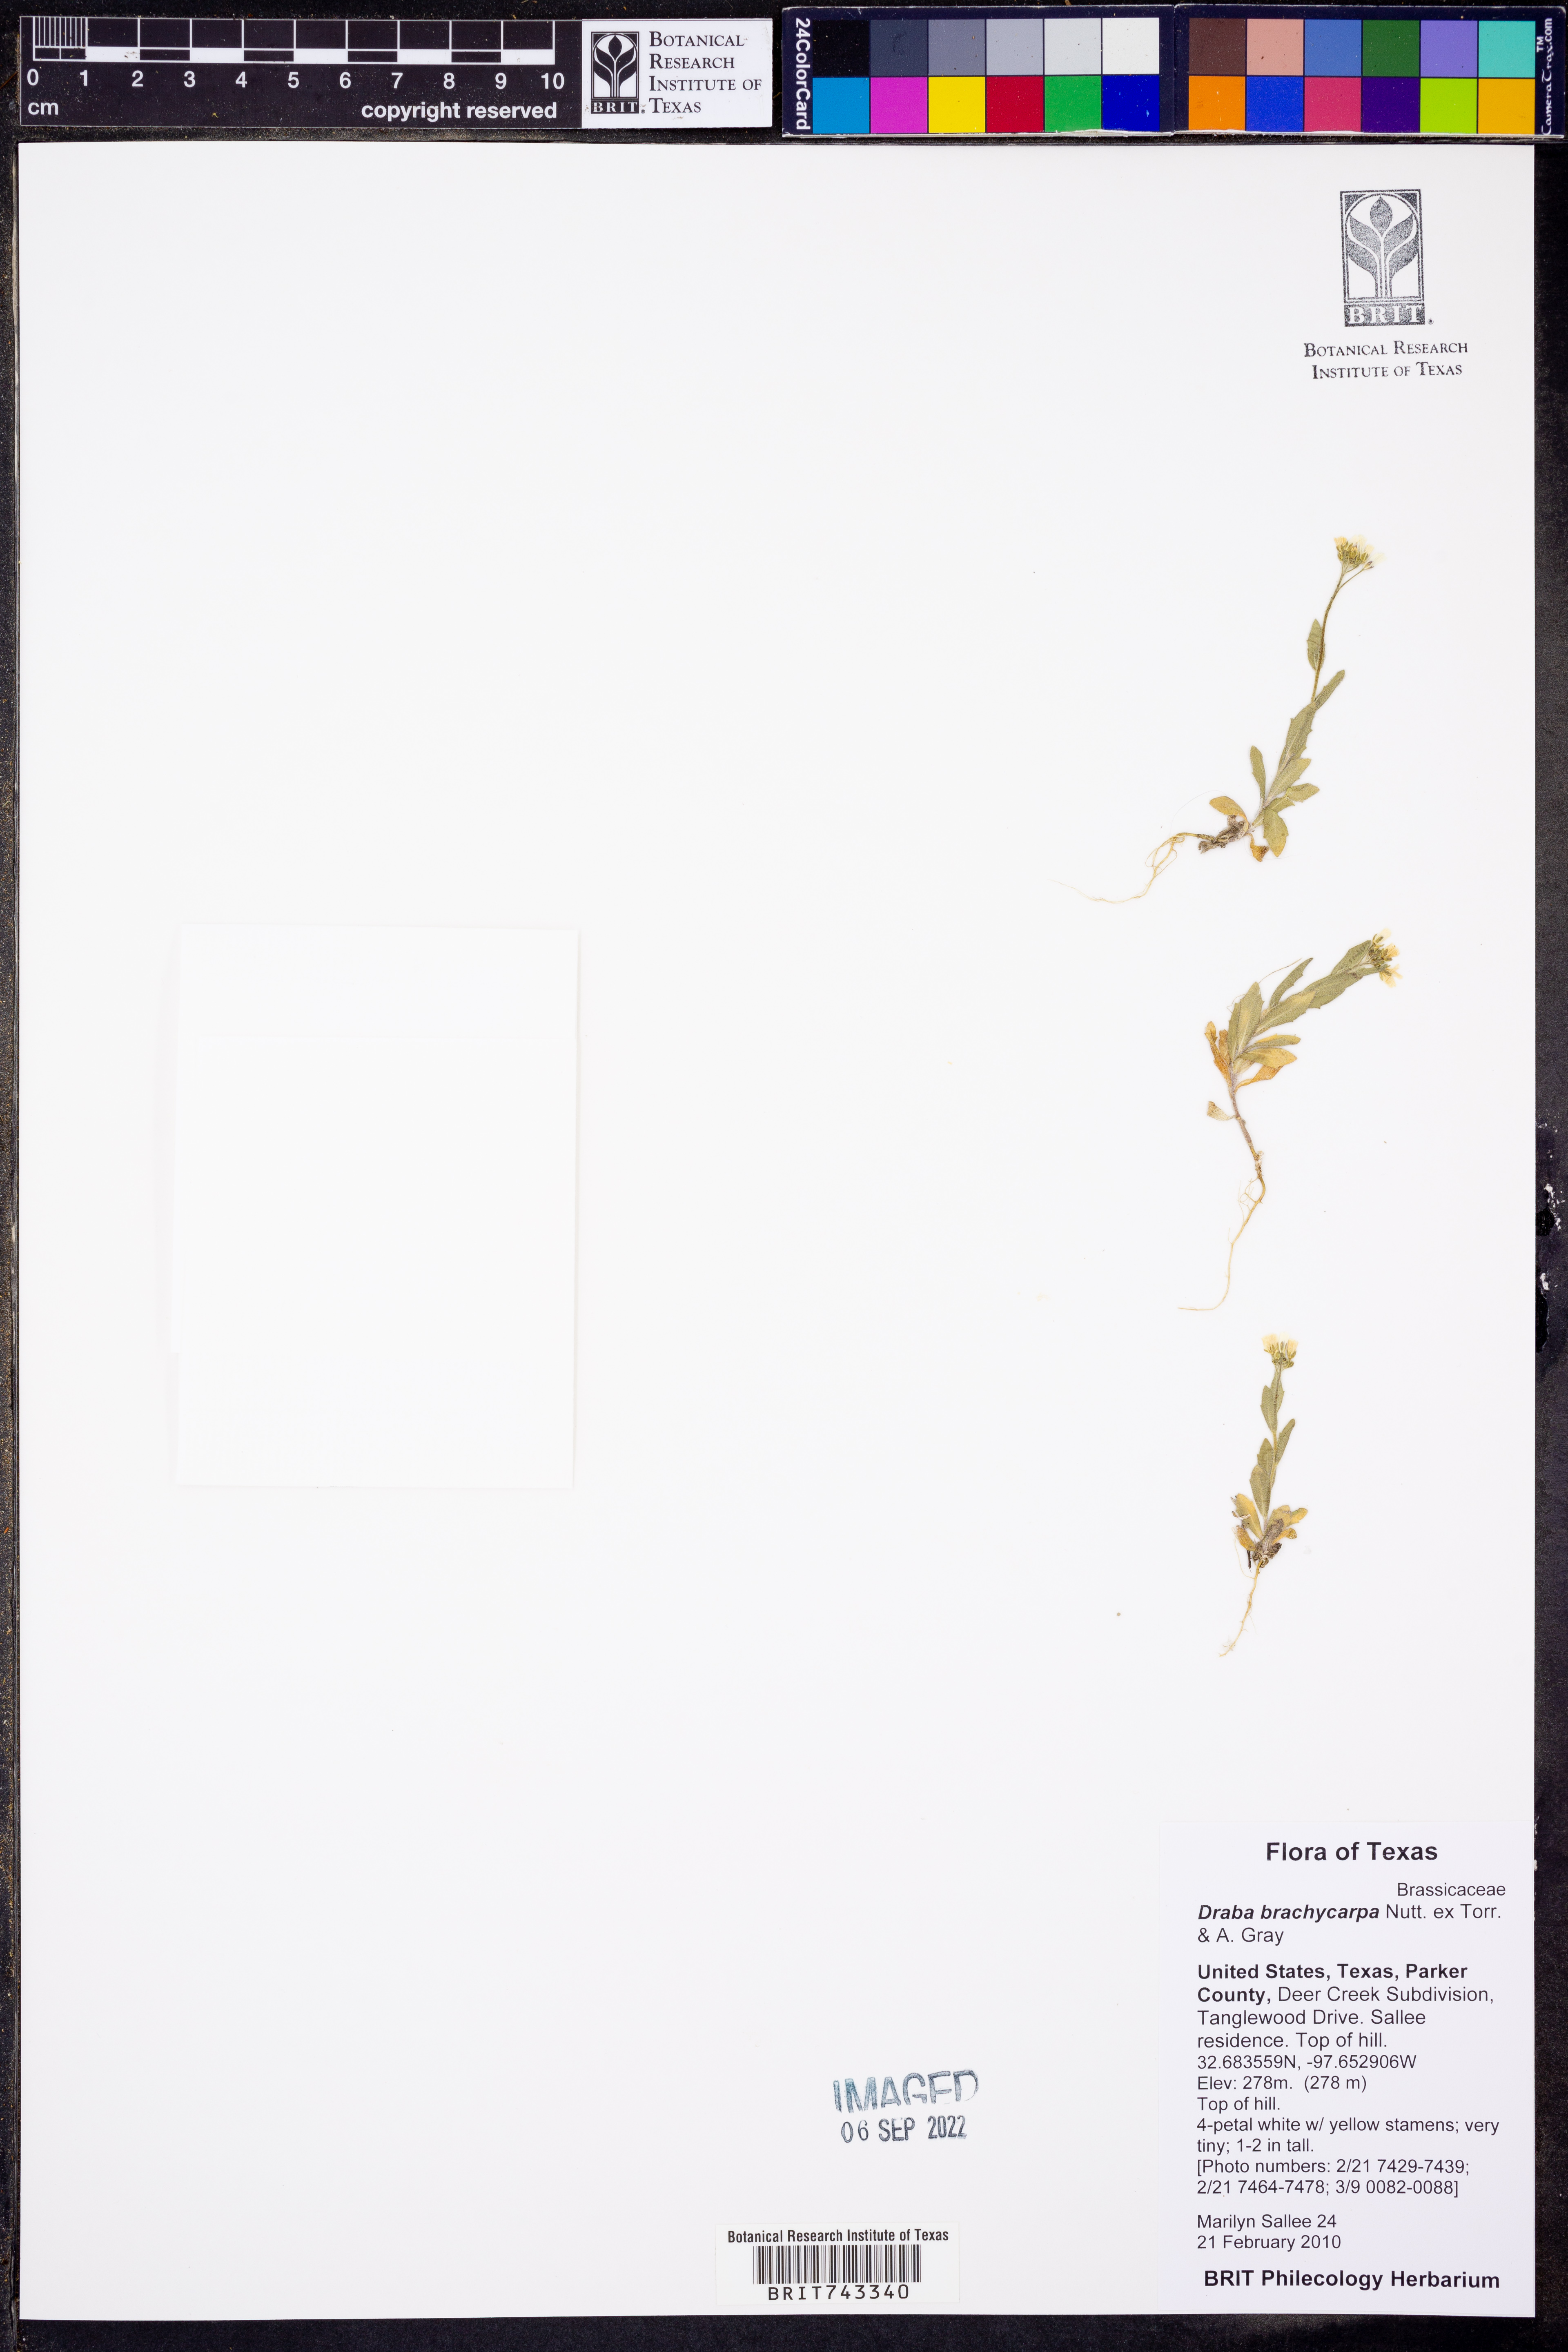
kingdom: Plantae
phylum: Tracheophyta
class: Magnoliopsida
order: Brassicales
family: Brassicaceae
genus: Abdra
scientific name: Abdra brachycarpa
